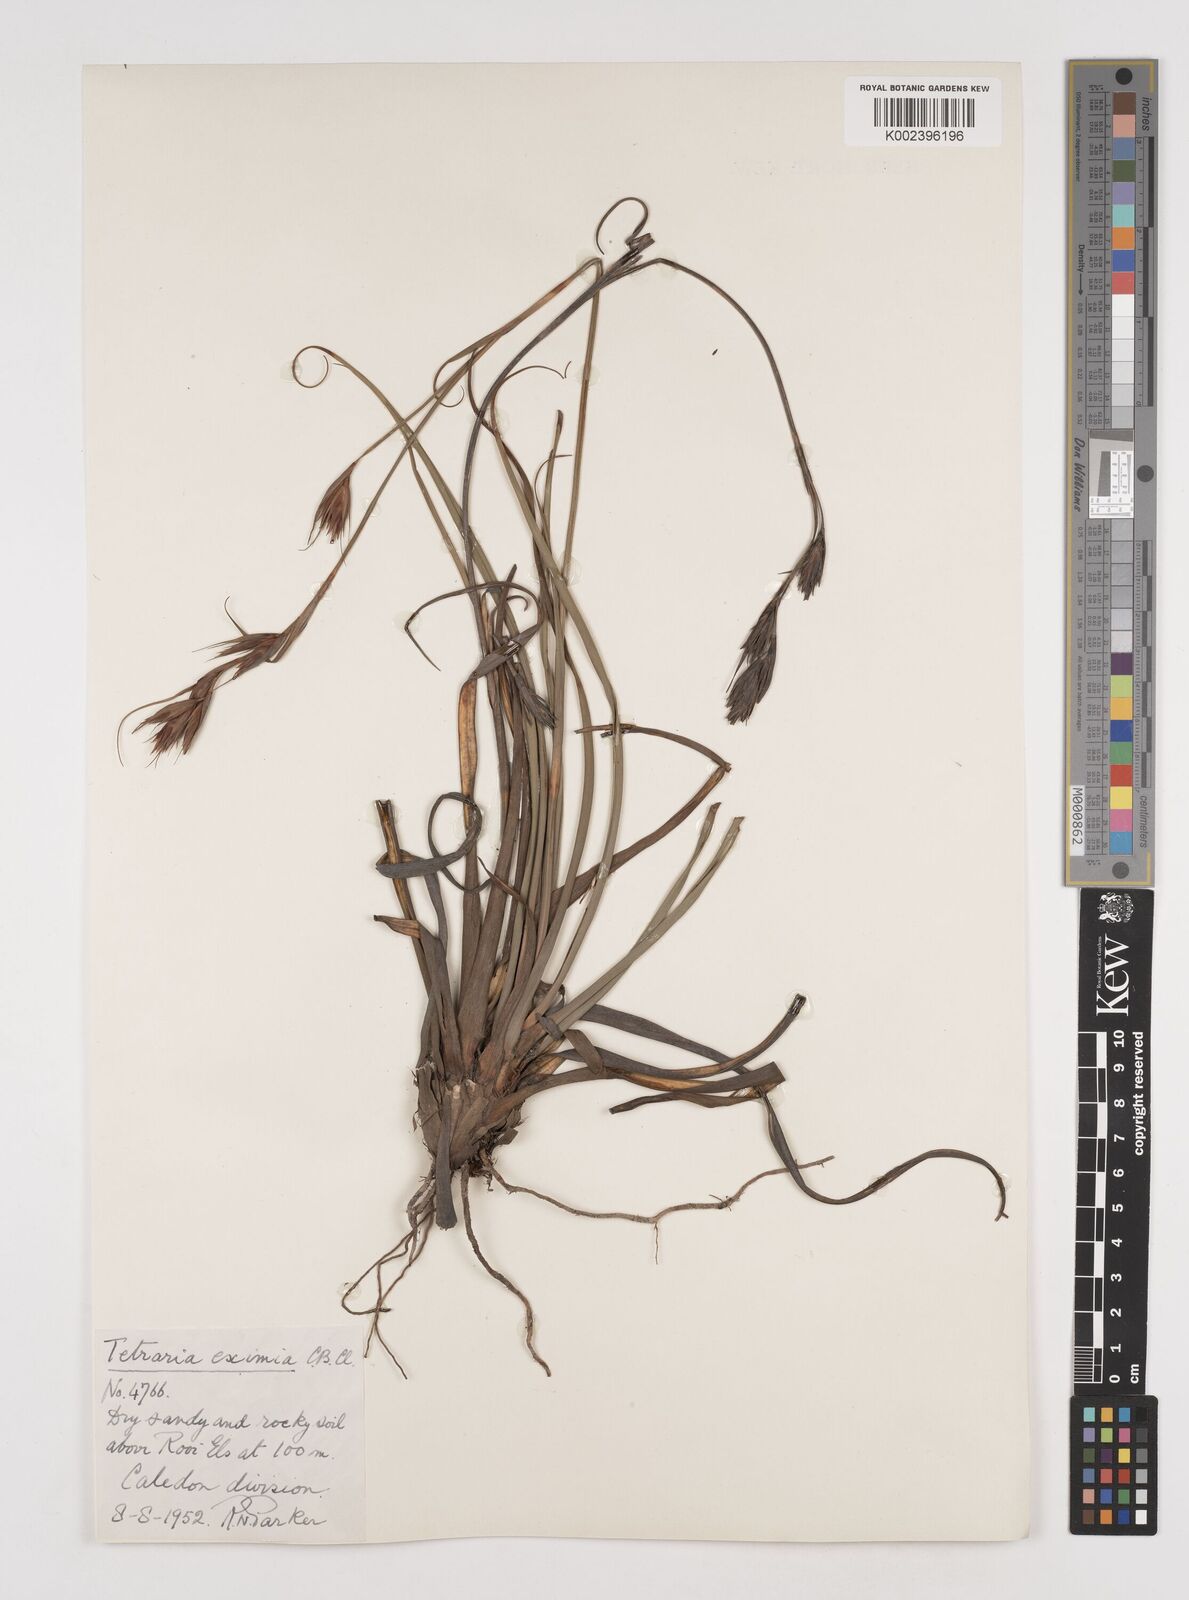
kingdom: Plantae
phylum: Tracheophyta
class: Liliopsida
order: Poales
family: Cyperaceae
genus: Tetraria
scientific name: Tetraria eximia
